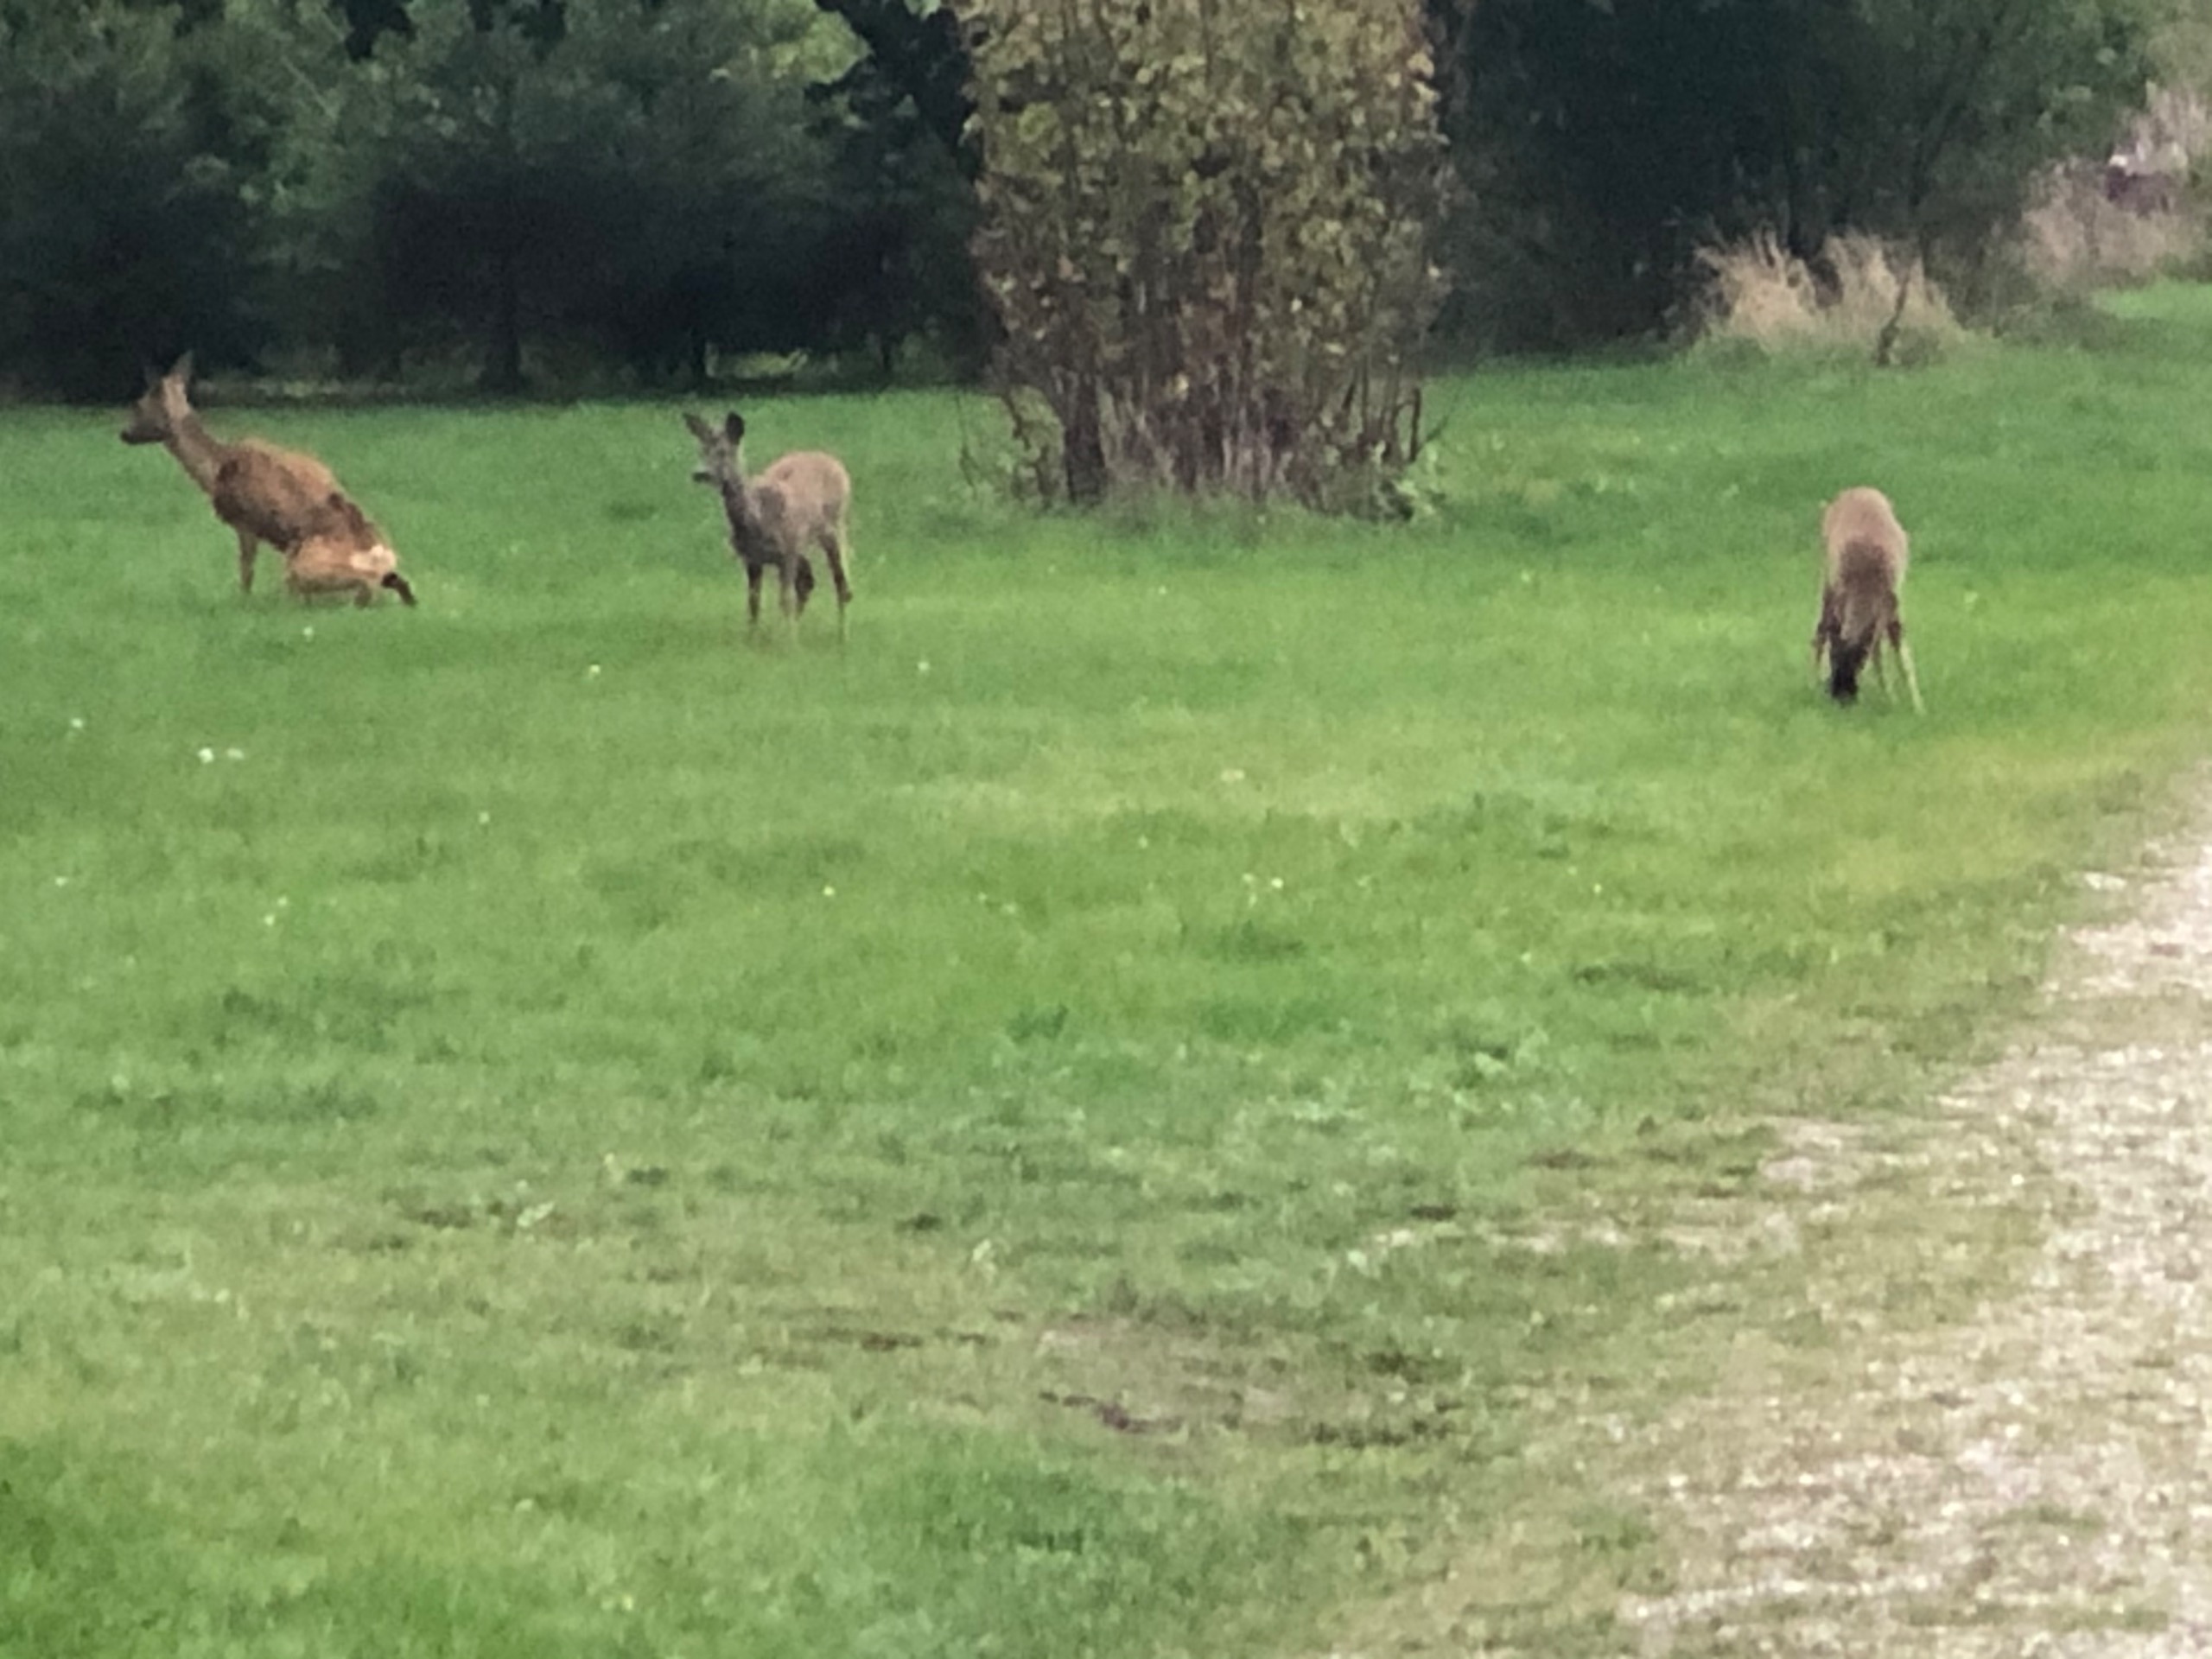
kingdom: Animalia
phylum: Chordata
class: Mammalia
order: Artiodactyla
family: Cervidae
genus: Capreolus
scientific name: Capreolus capreolus
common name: Rådyr
